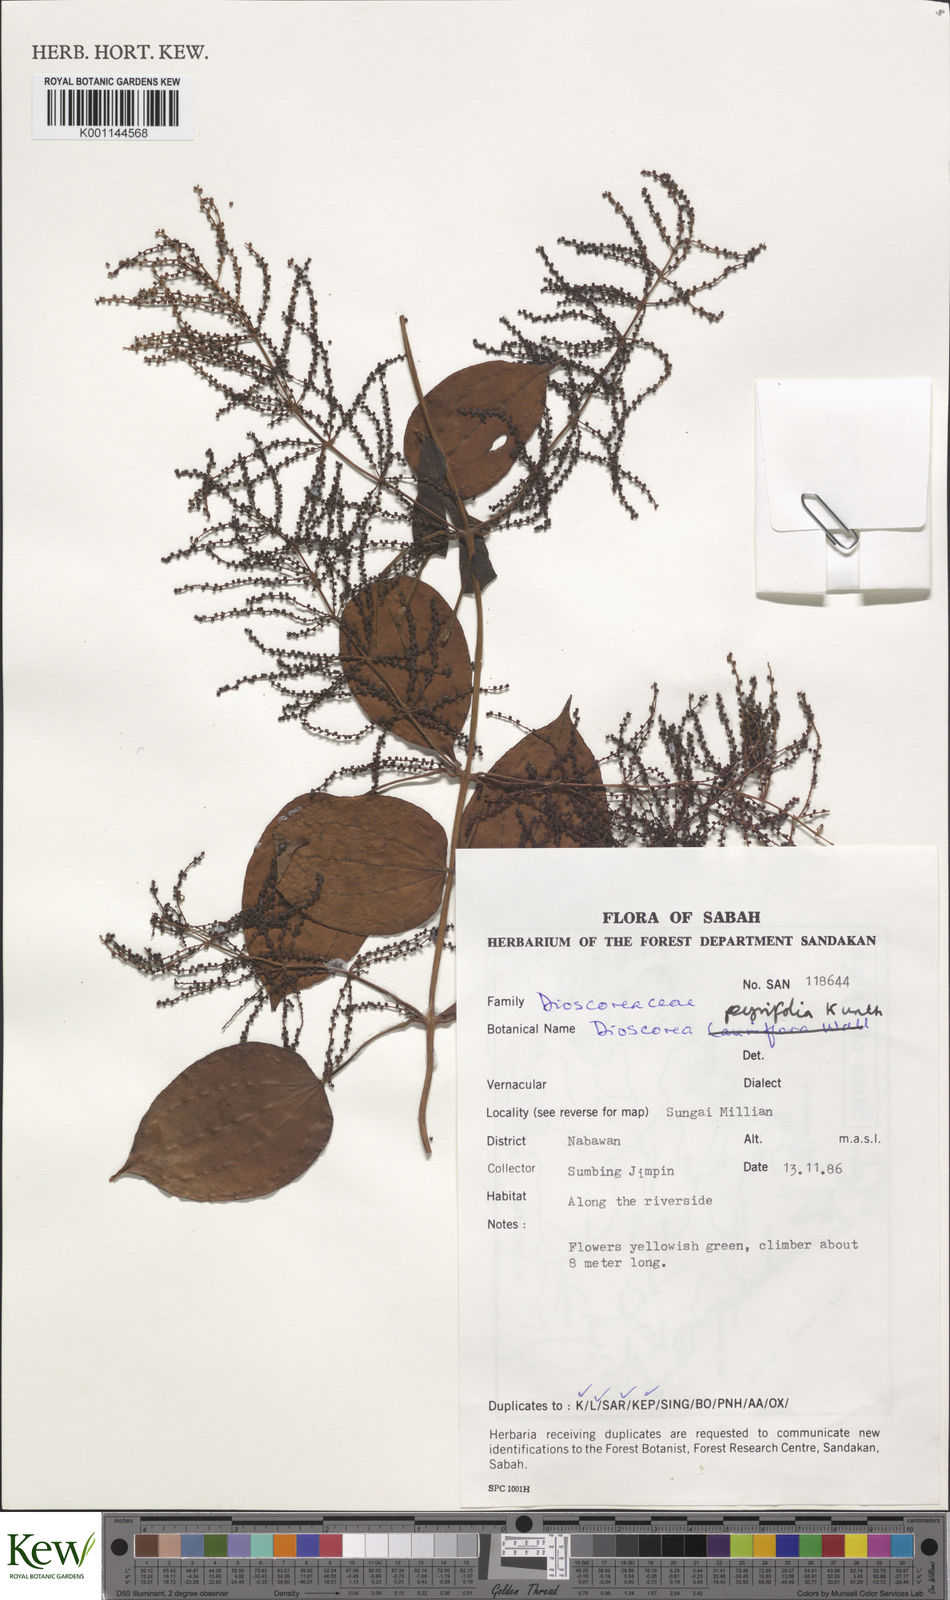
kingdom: Plantae
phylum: Tracheophyta
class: Liliopsida
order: Dioscoreales
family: Dioscoreaceae
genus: Dioscorea
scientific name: Dioscorea pyrifolia
